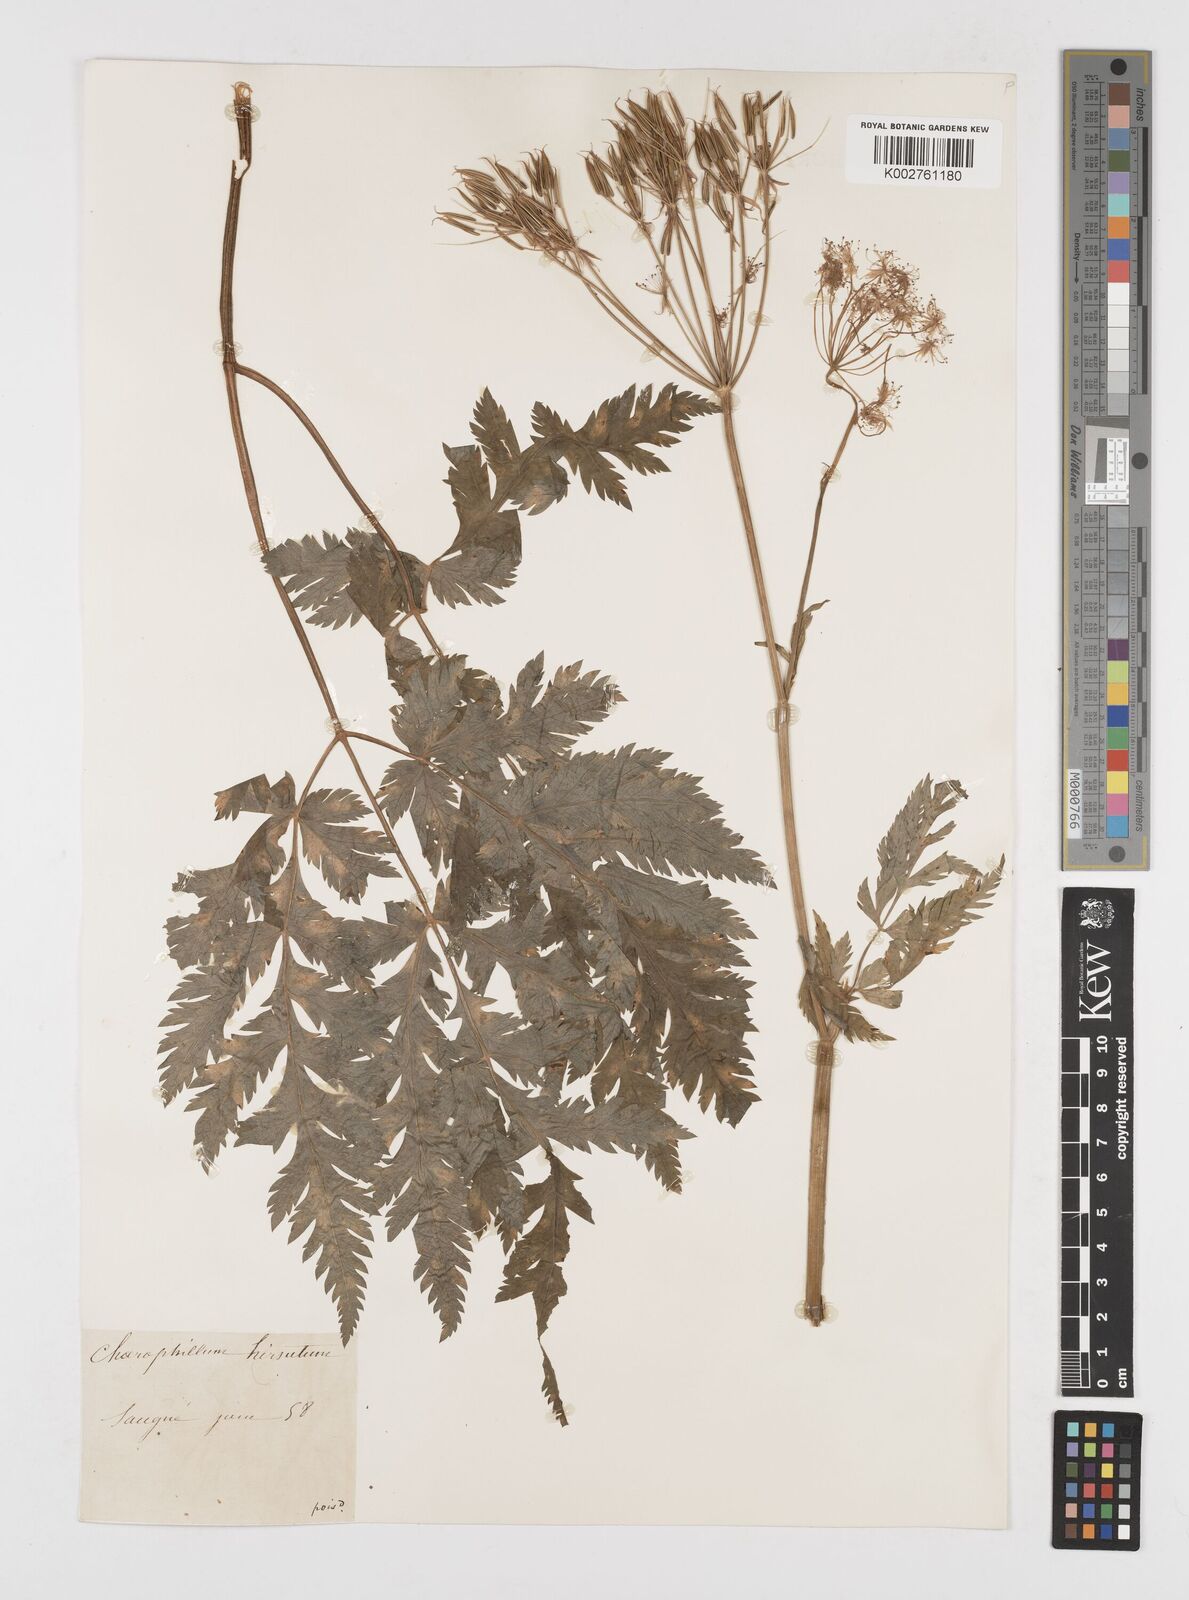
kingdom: Plantae
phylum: Tracheophyta
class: Magnoliopsida
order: Apiales
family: Apiaceae
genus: Chaerophyllum
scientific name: Chaerophyllum hirsutum
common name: Hairy chervil
